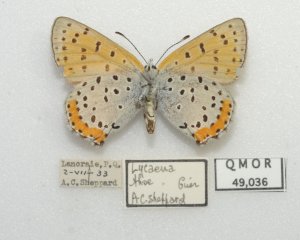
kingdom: Animalia
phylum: Arthropoda
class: Insecta
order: Lepidoptera
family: Sesiidae
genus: Sesia
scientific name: Sesia Lycaena hyllus
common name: Bronze Copper
